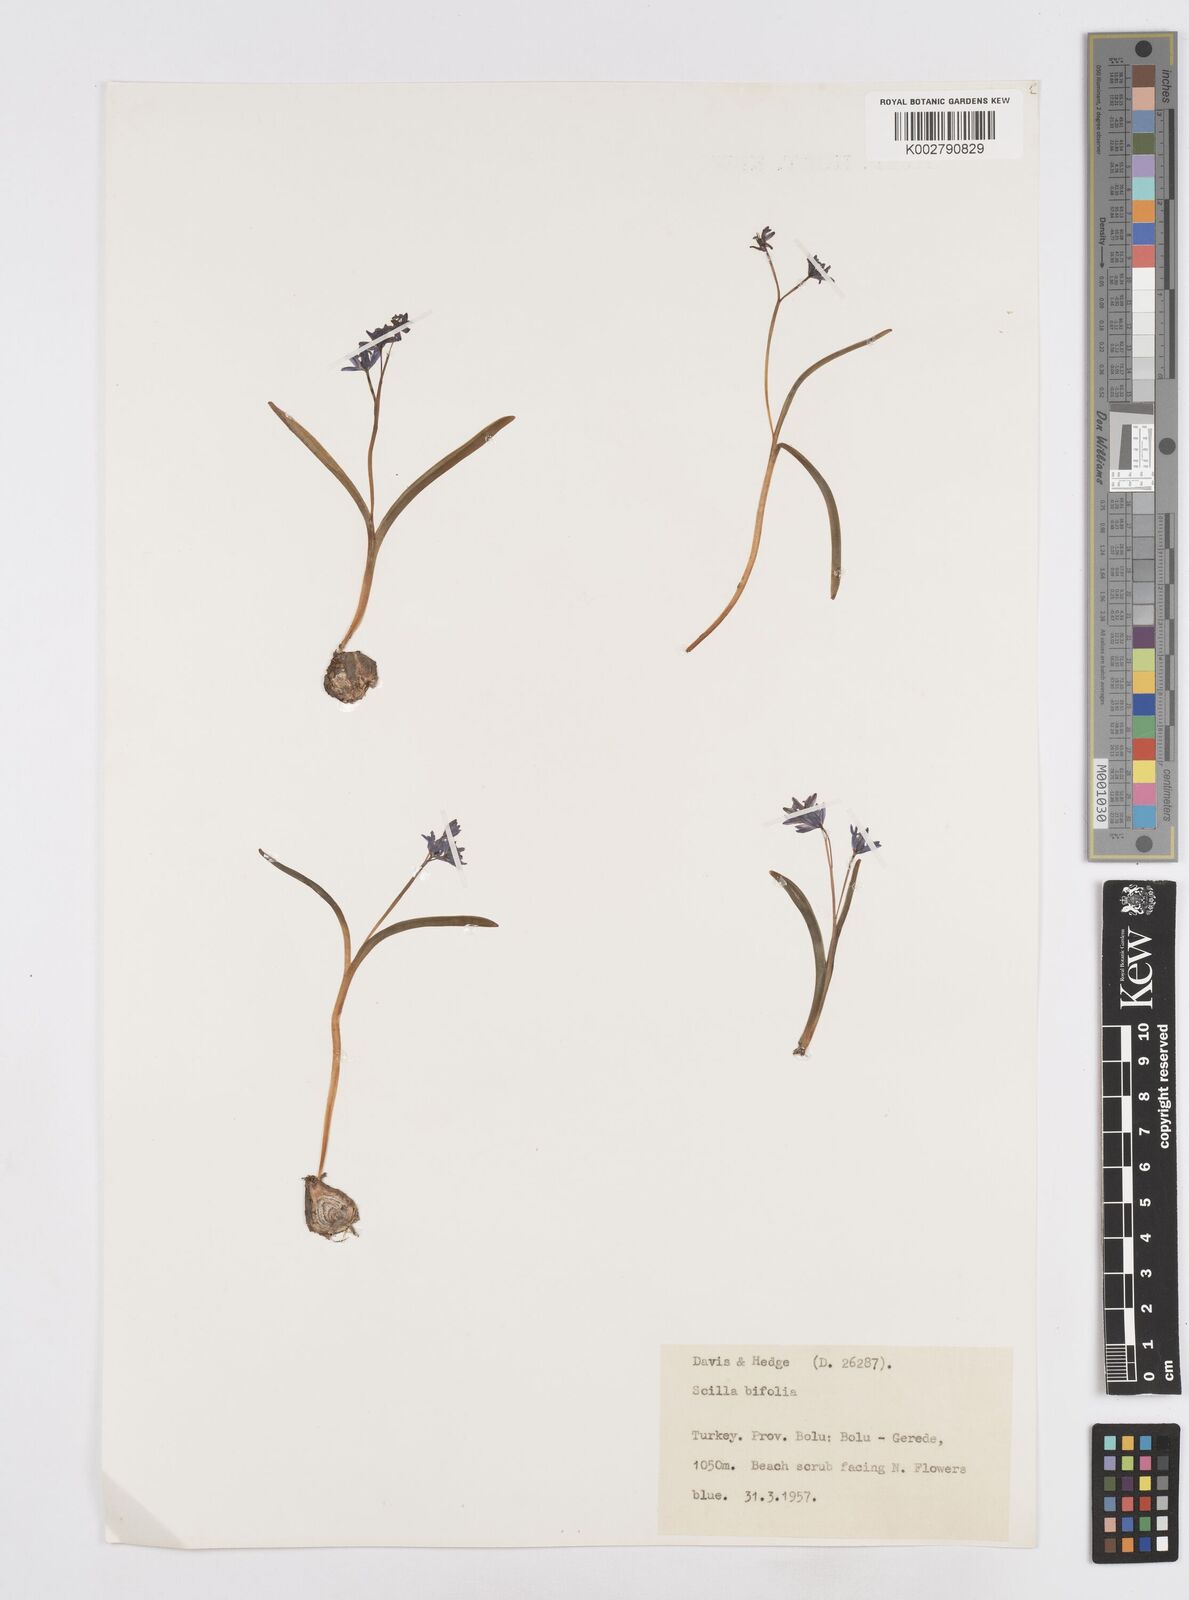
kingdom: Plantae
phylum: Tracheophyta
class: Liliopsida
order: Asparagales
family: Asparagaceae
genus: Scilla
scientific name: Scilla bifolia
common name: Alpine squill
